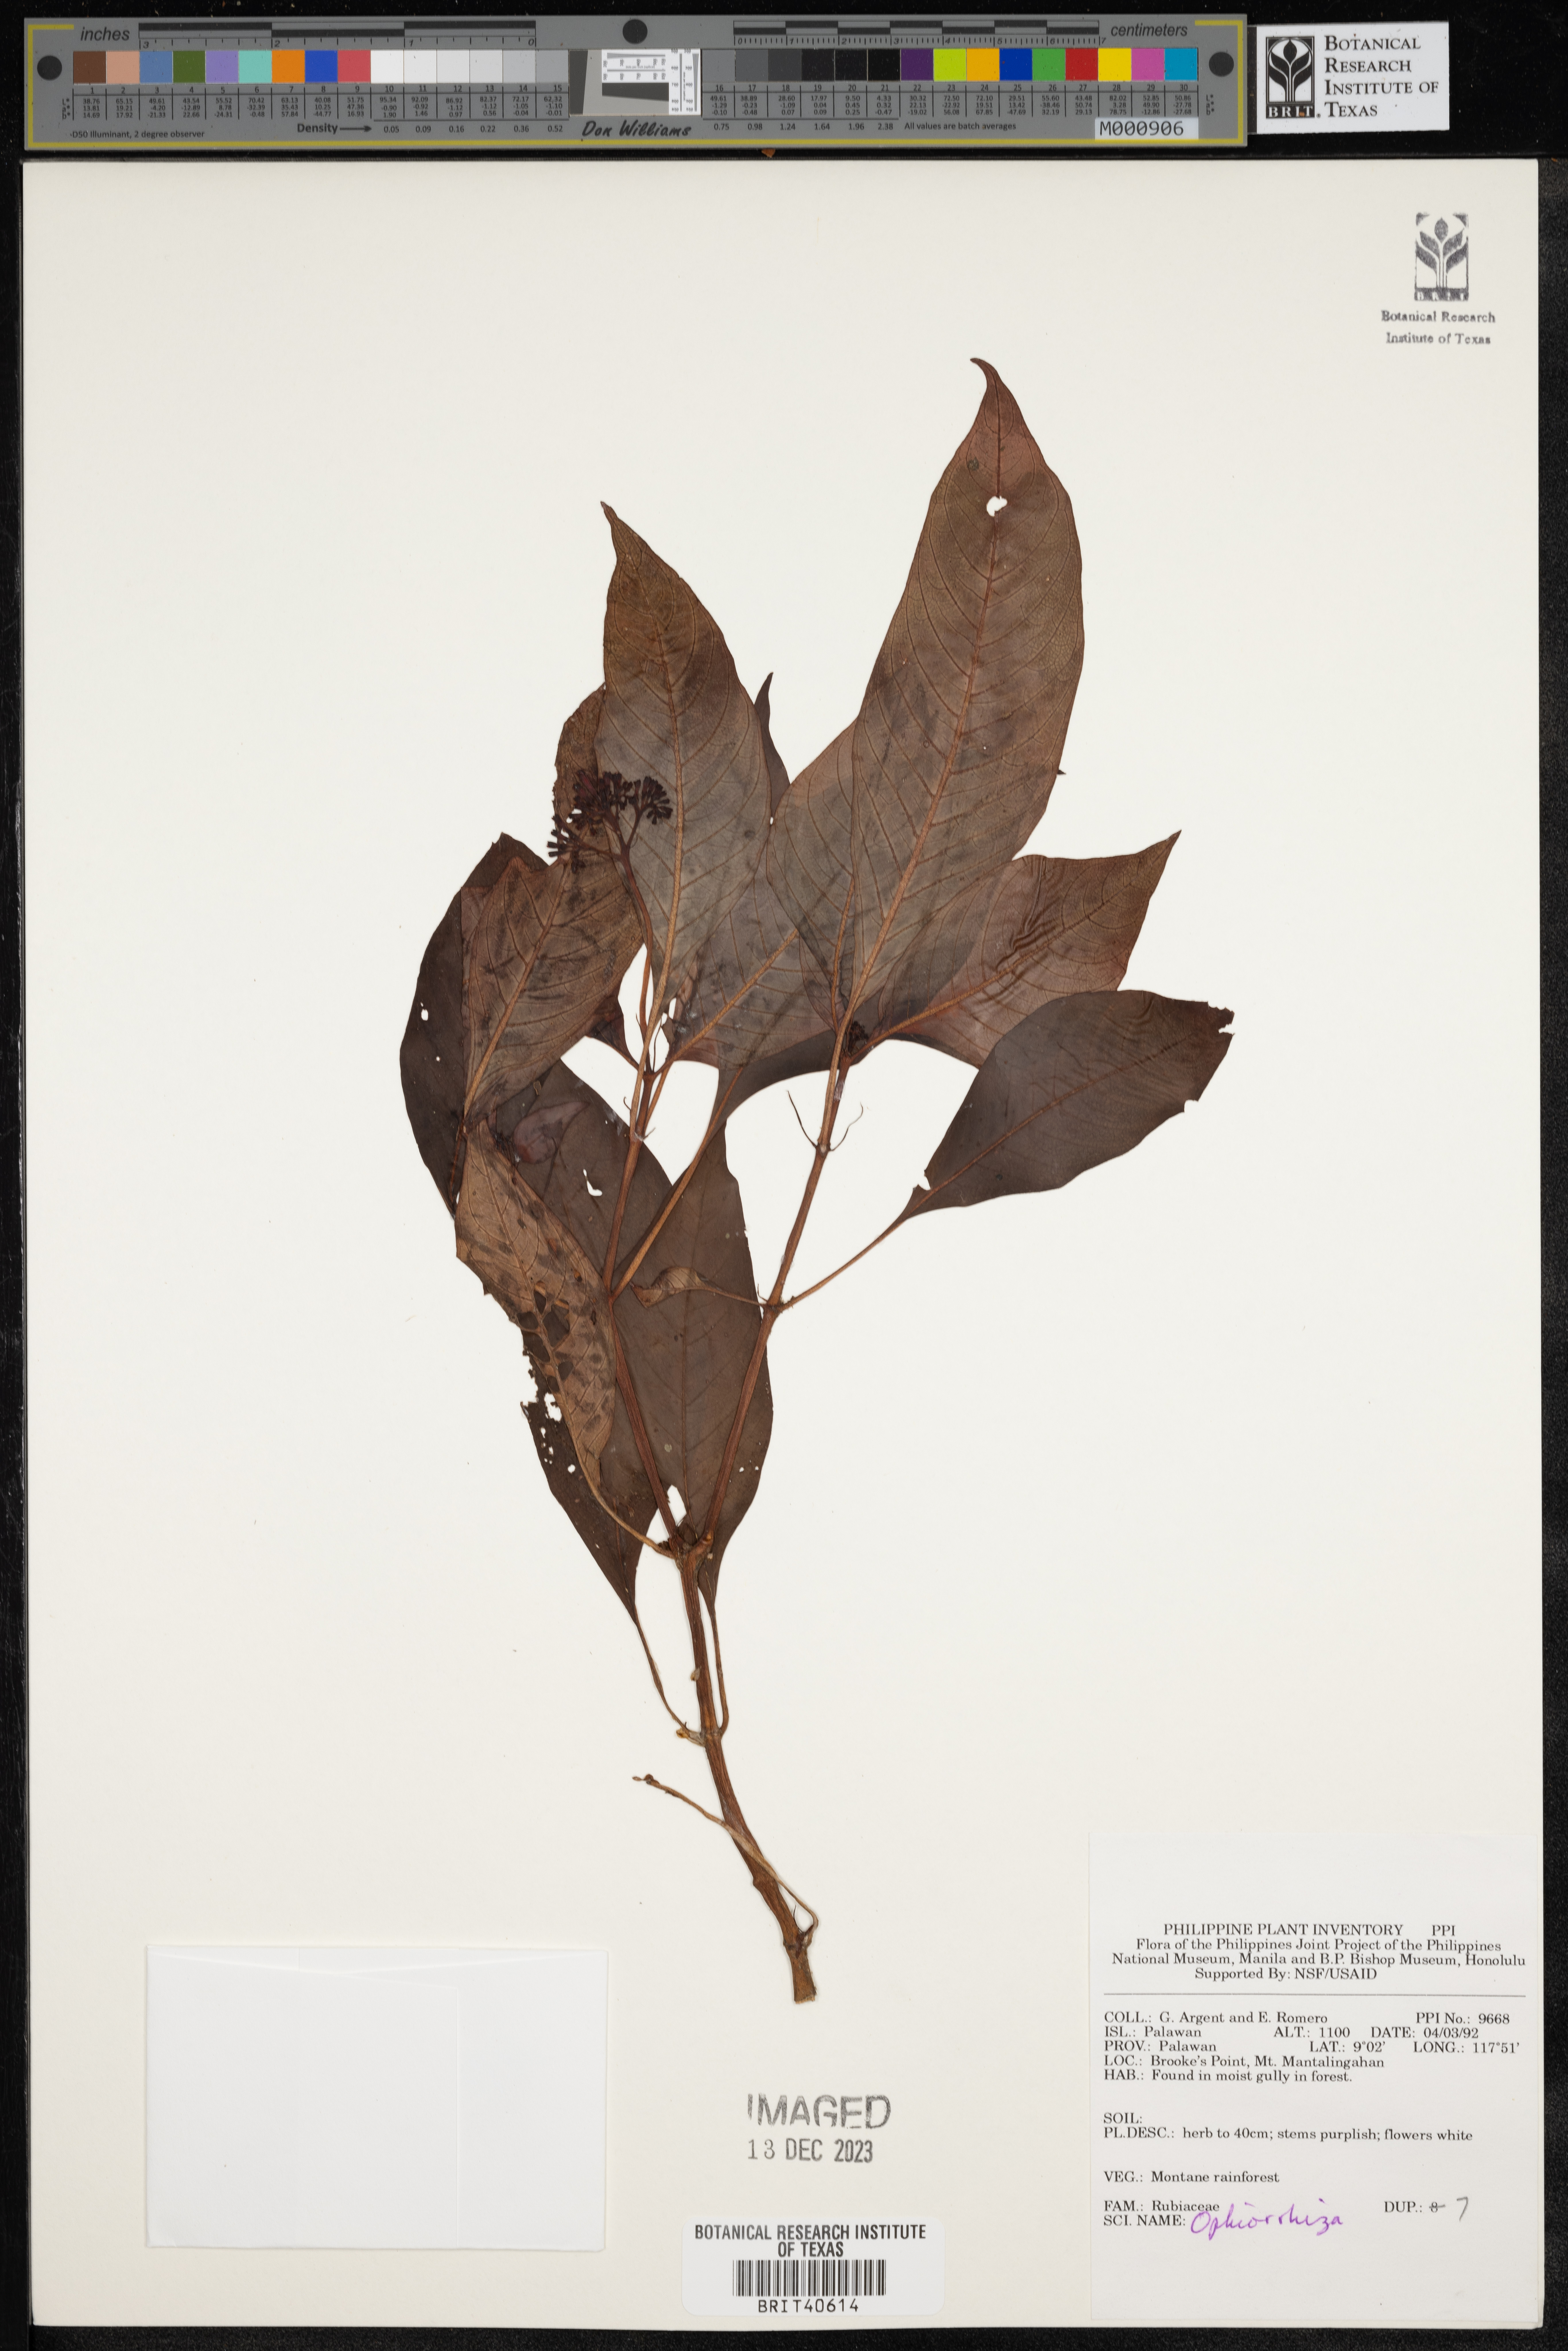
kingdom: Plantae
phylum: Tracheophyta
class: Magnoliopsida
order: Gentianales
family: Rubiaceae
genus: Ophiorrhiza
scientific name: Ophiorrhiza
